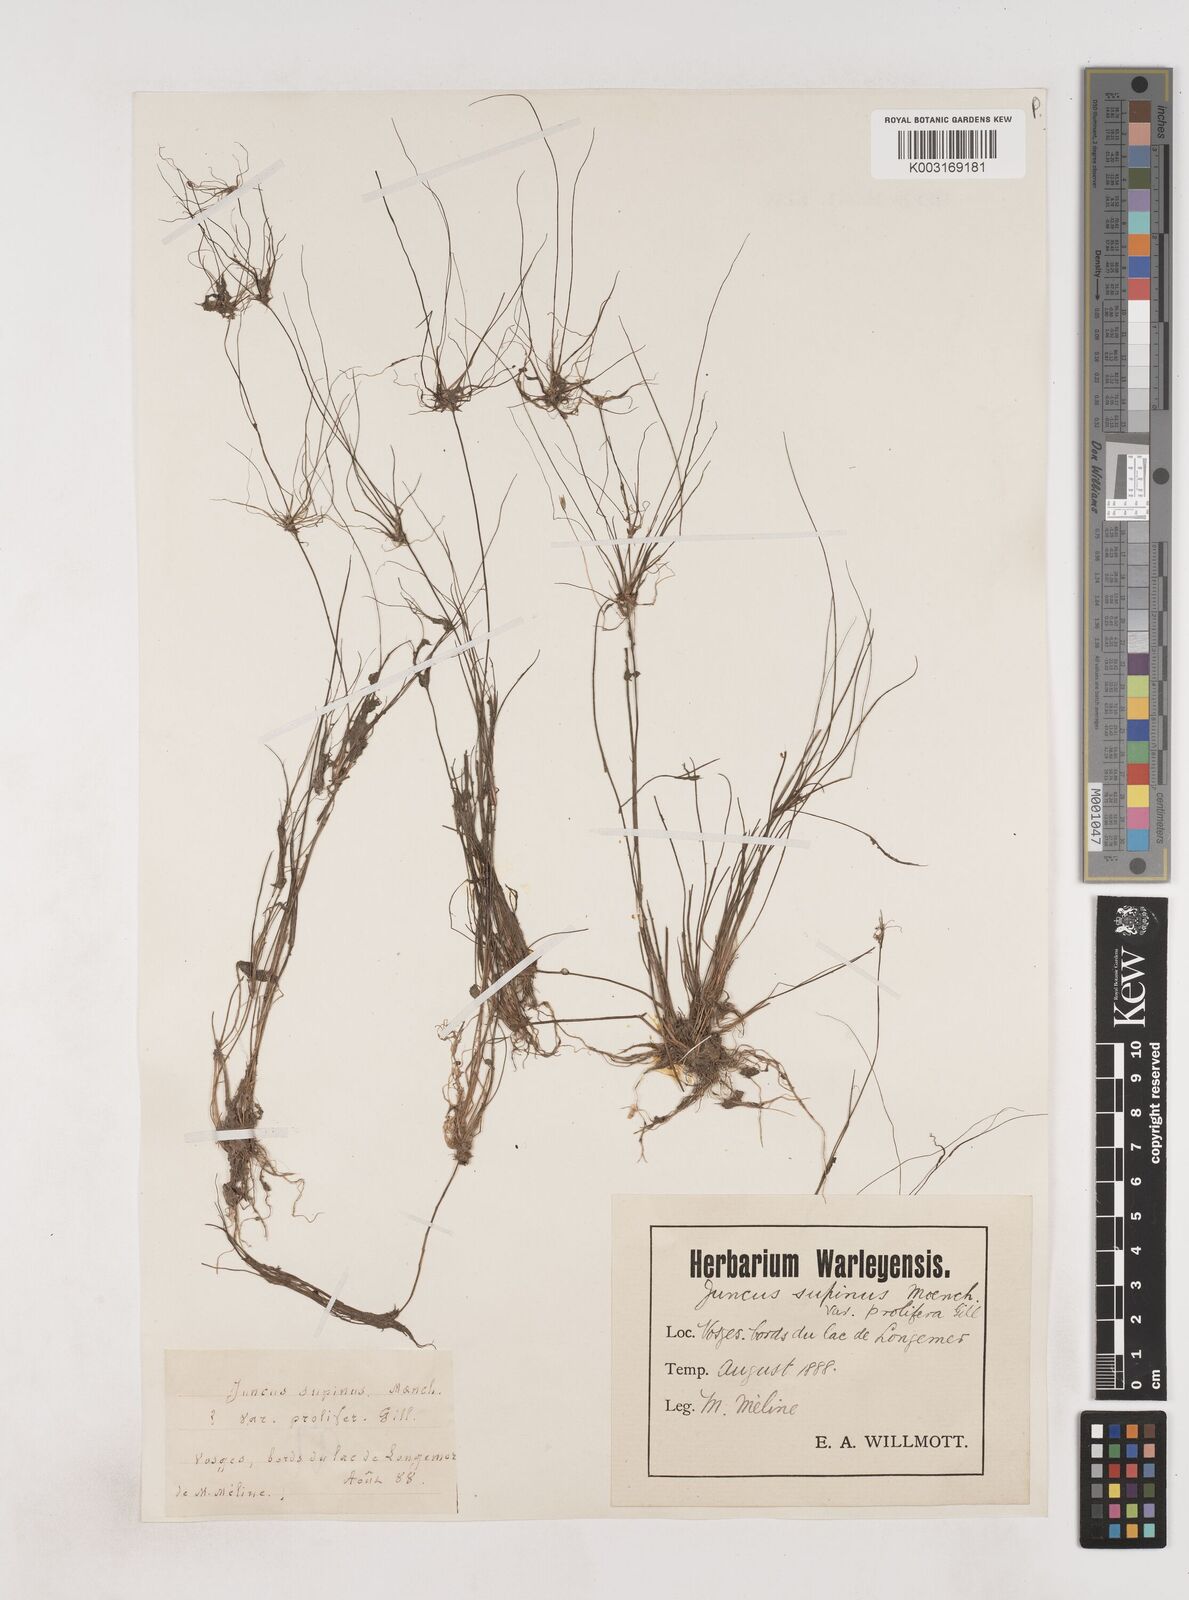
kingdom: Plantae
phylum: Tracheophyta
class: Liliopsida
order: Poales
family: Juncaceae
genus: Juncus
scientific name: Juncus bulbosus
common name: Bulbous rush
